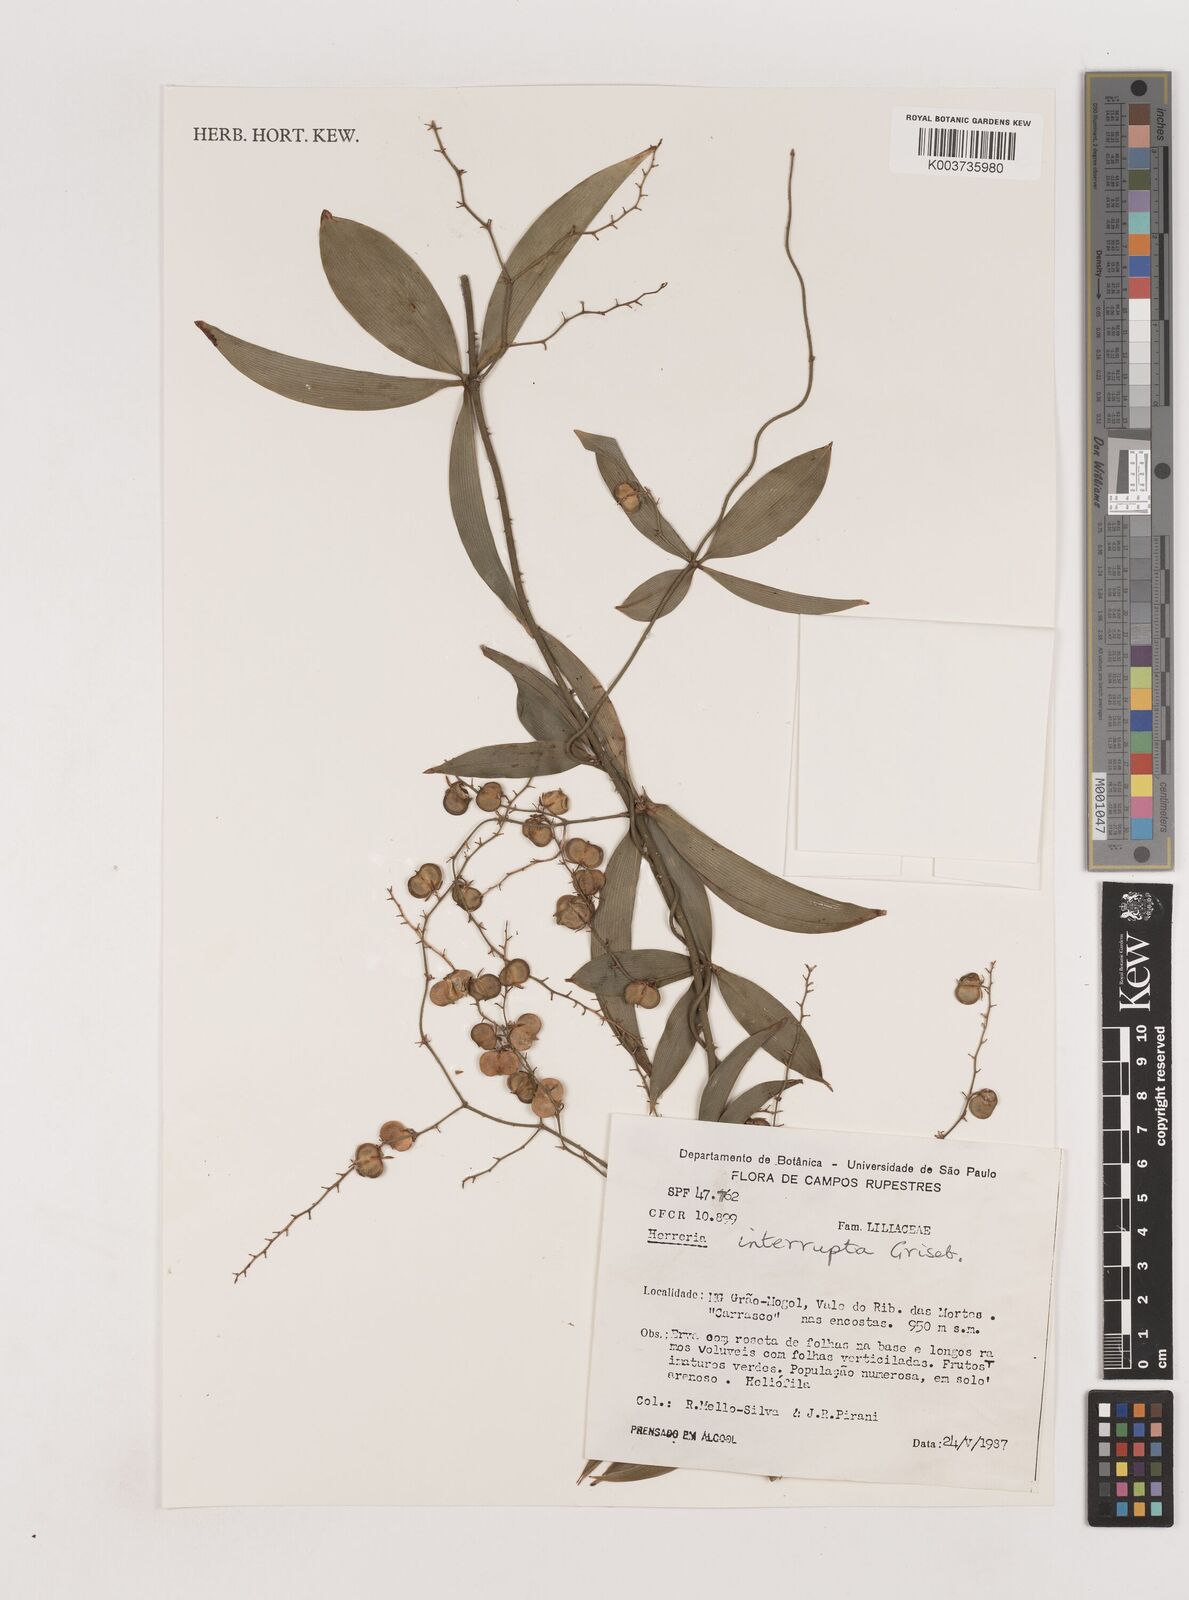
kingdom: Plantae
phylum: Tracheophyta
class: Liliopsida
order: Asparagales
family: Asparagaceae
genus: Herreria
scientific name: Herreria salsaparilha
